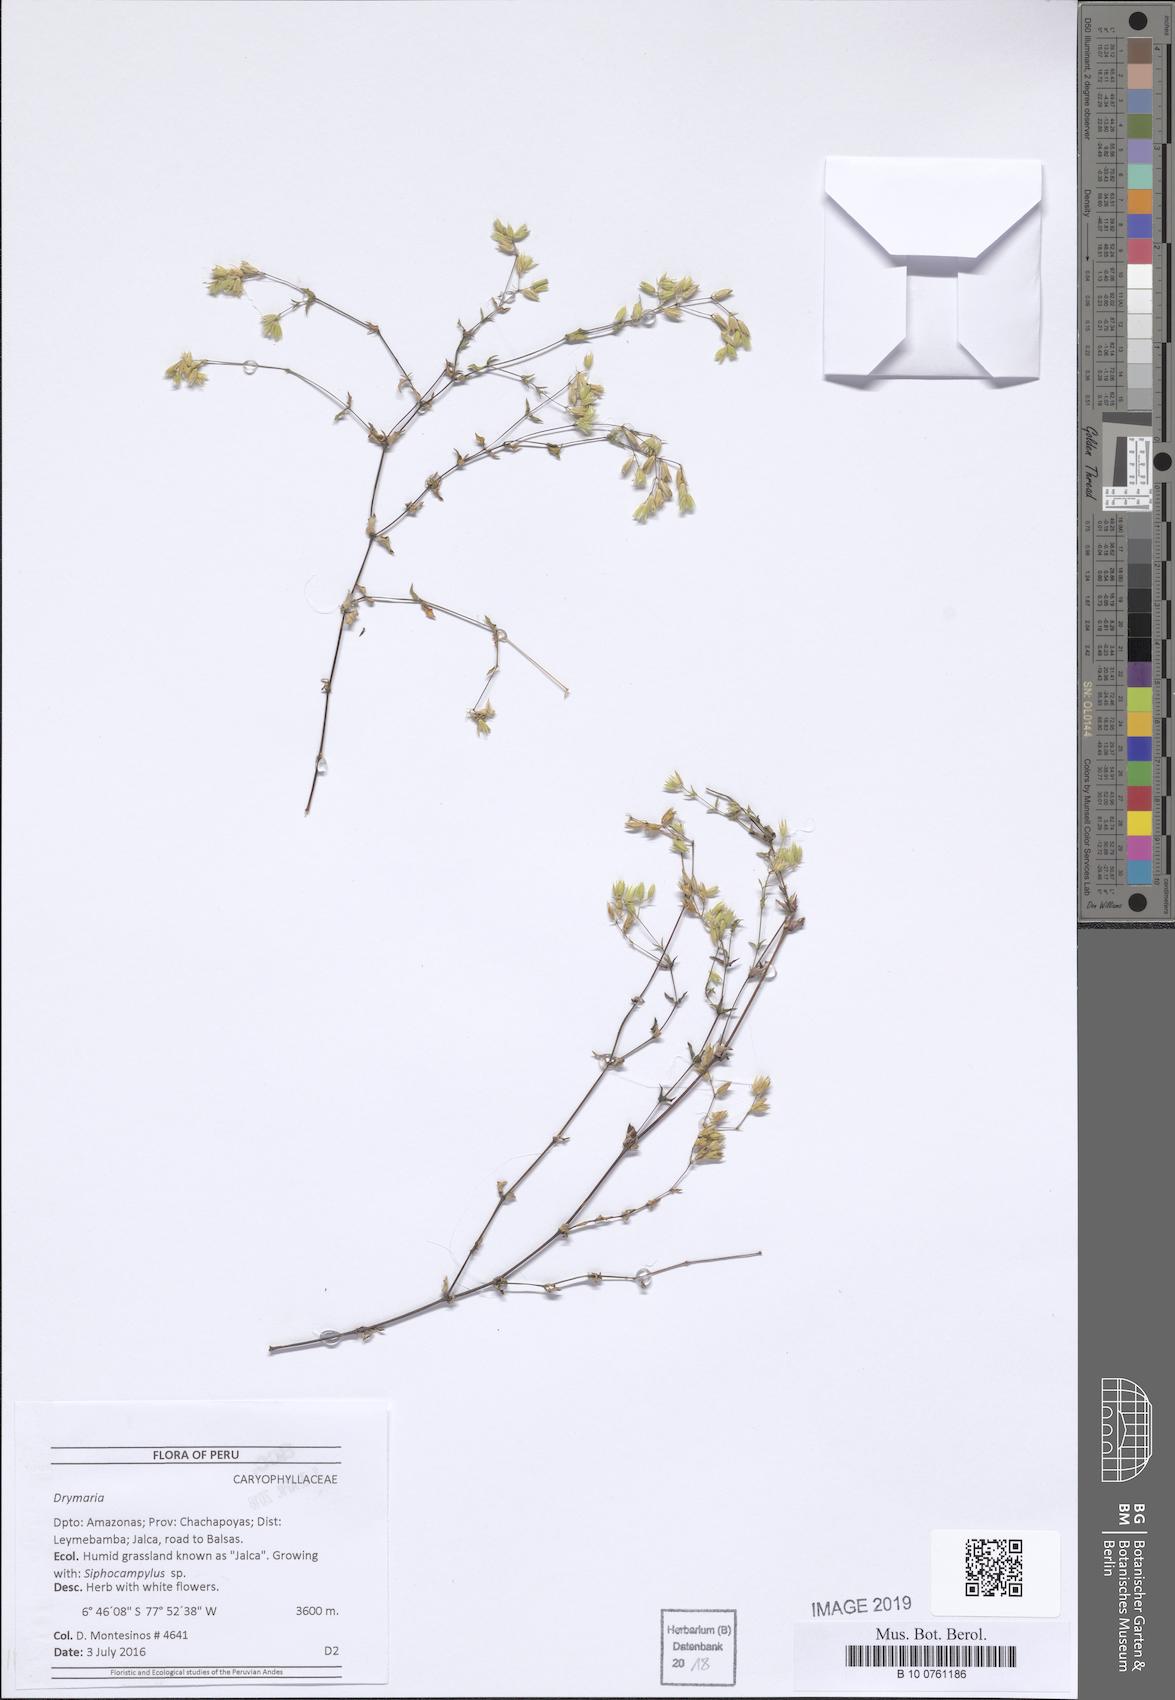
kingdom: Plantae
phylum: Tracheophyta
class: Magnoliopsida
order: Caryophyllales
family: Caryophyllaceae
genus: Drymaria
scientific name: Drymaria
